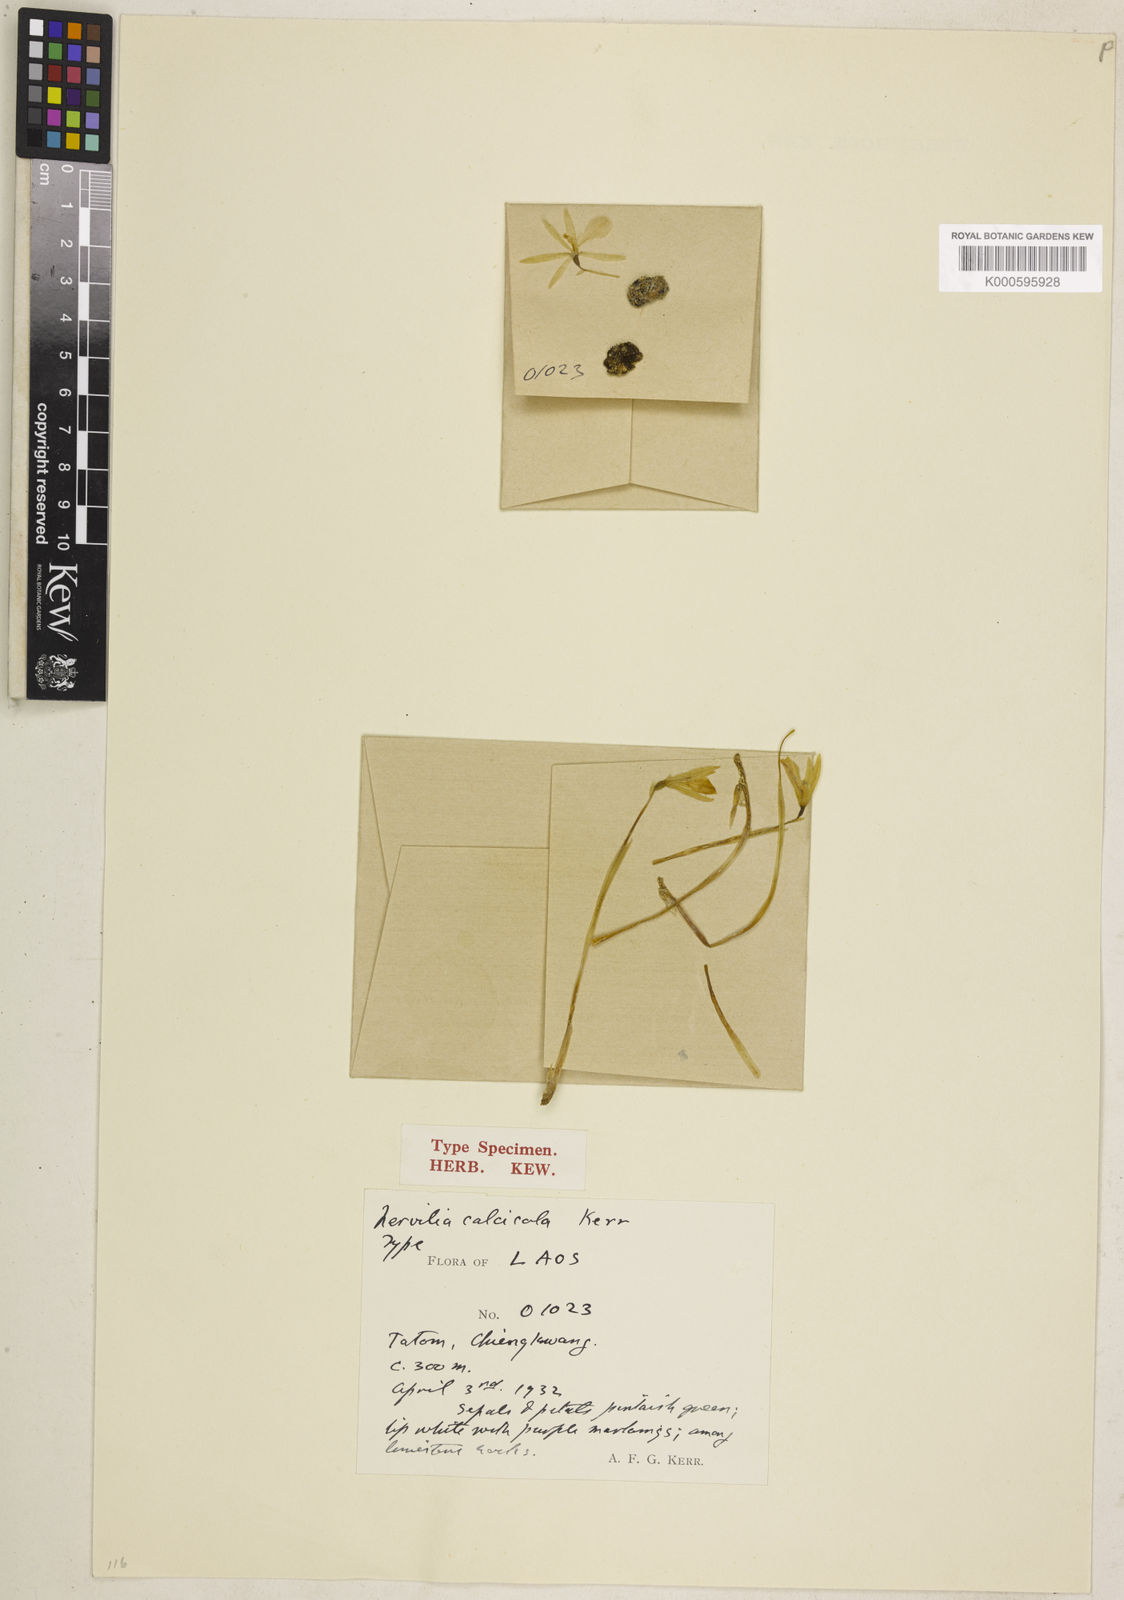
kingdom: Plantae
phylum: Tracheophyta
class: Liliopsida
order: Asparagales
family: Orchidaceae
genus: Nervilia
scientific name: Nervilia infundibulifolia
